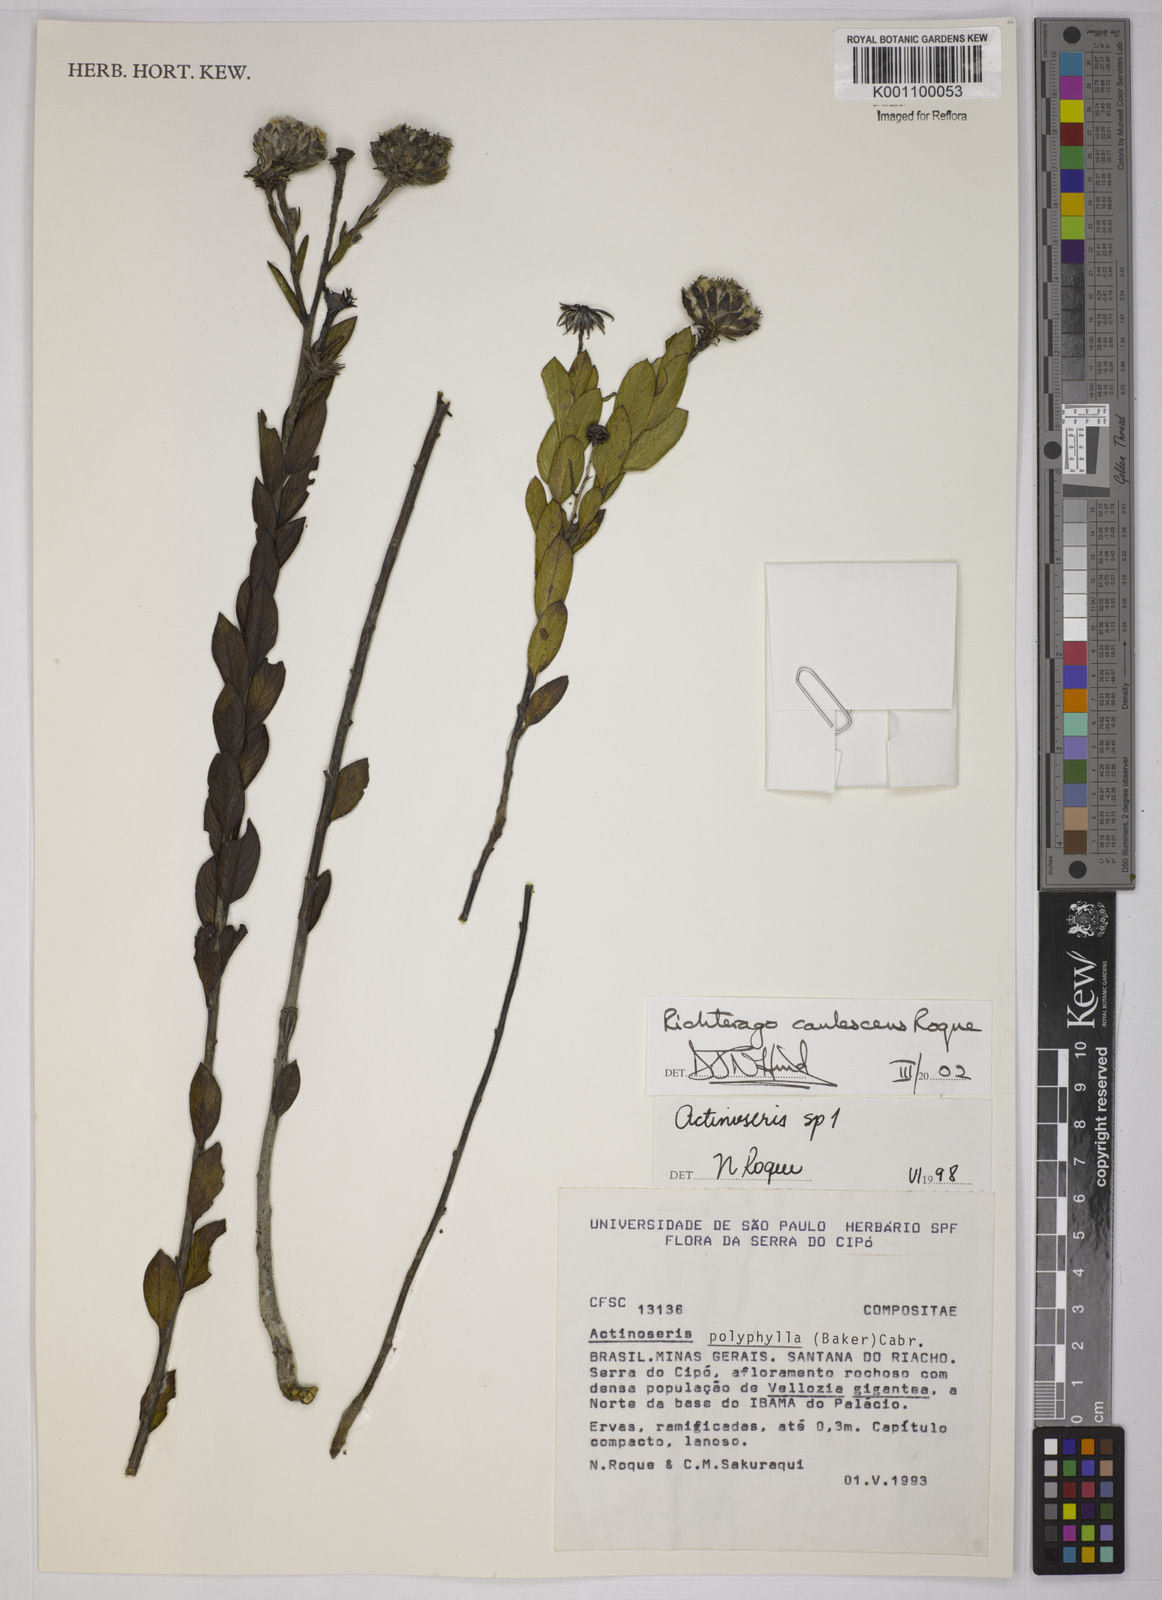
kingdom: Plantae
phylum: Tracheophyta
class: Magnoliopsida
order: Asterales
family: Asteraceae
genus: Richterago
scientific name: Richterago caulescens
